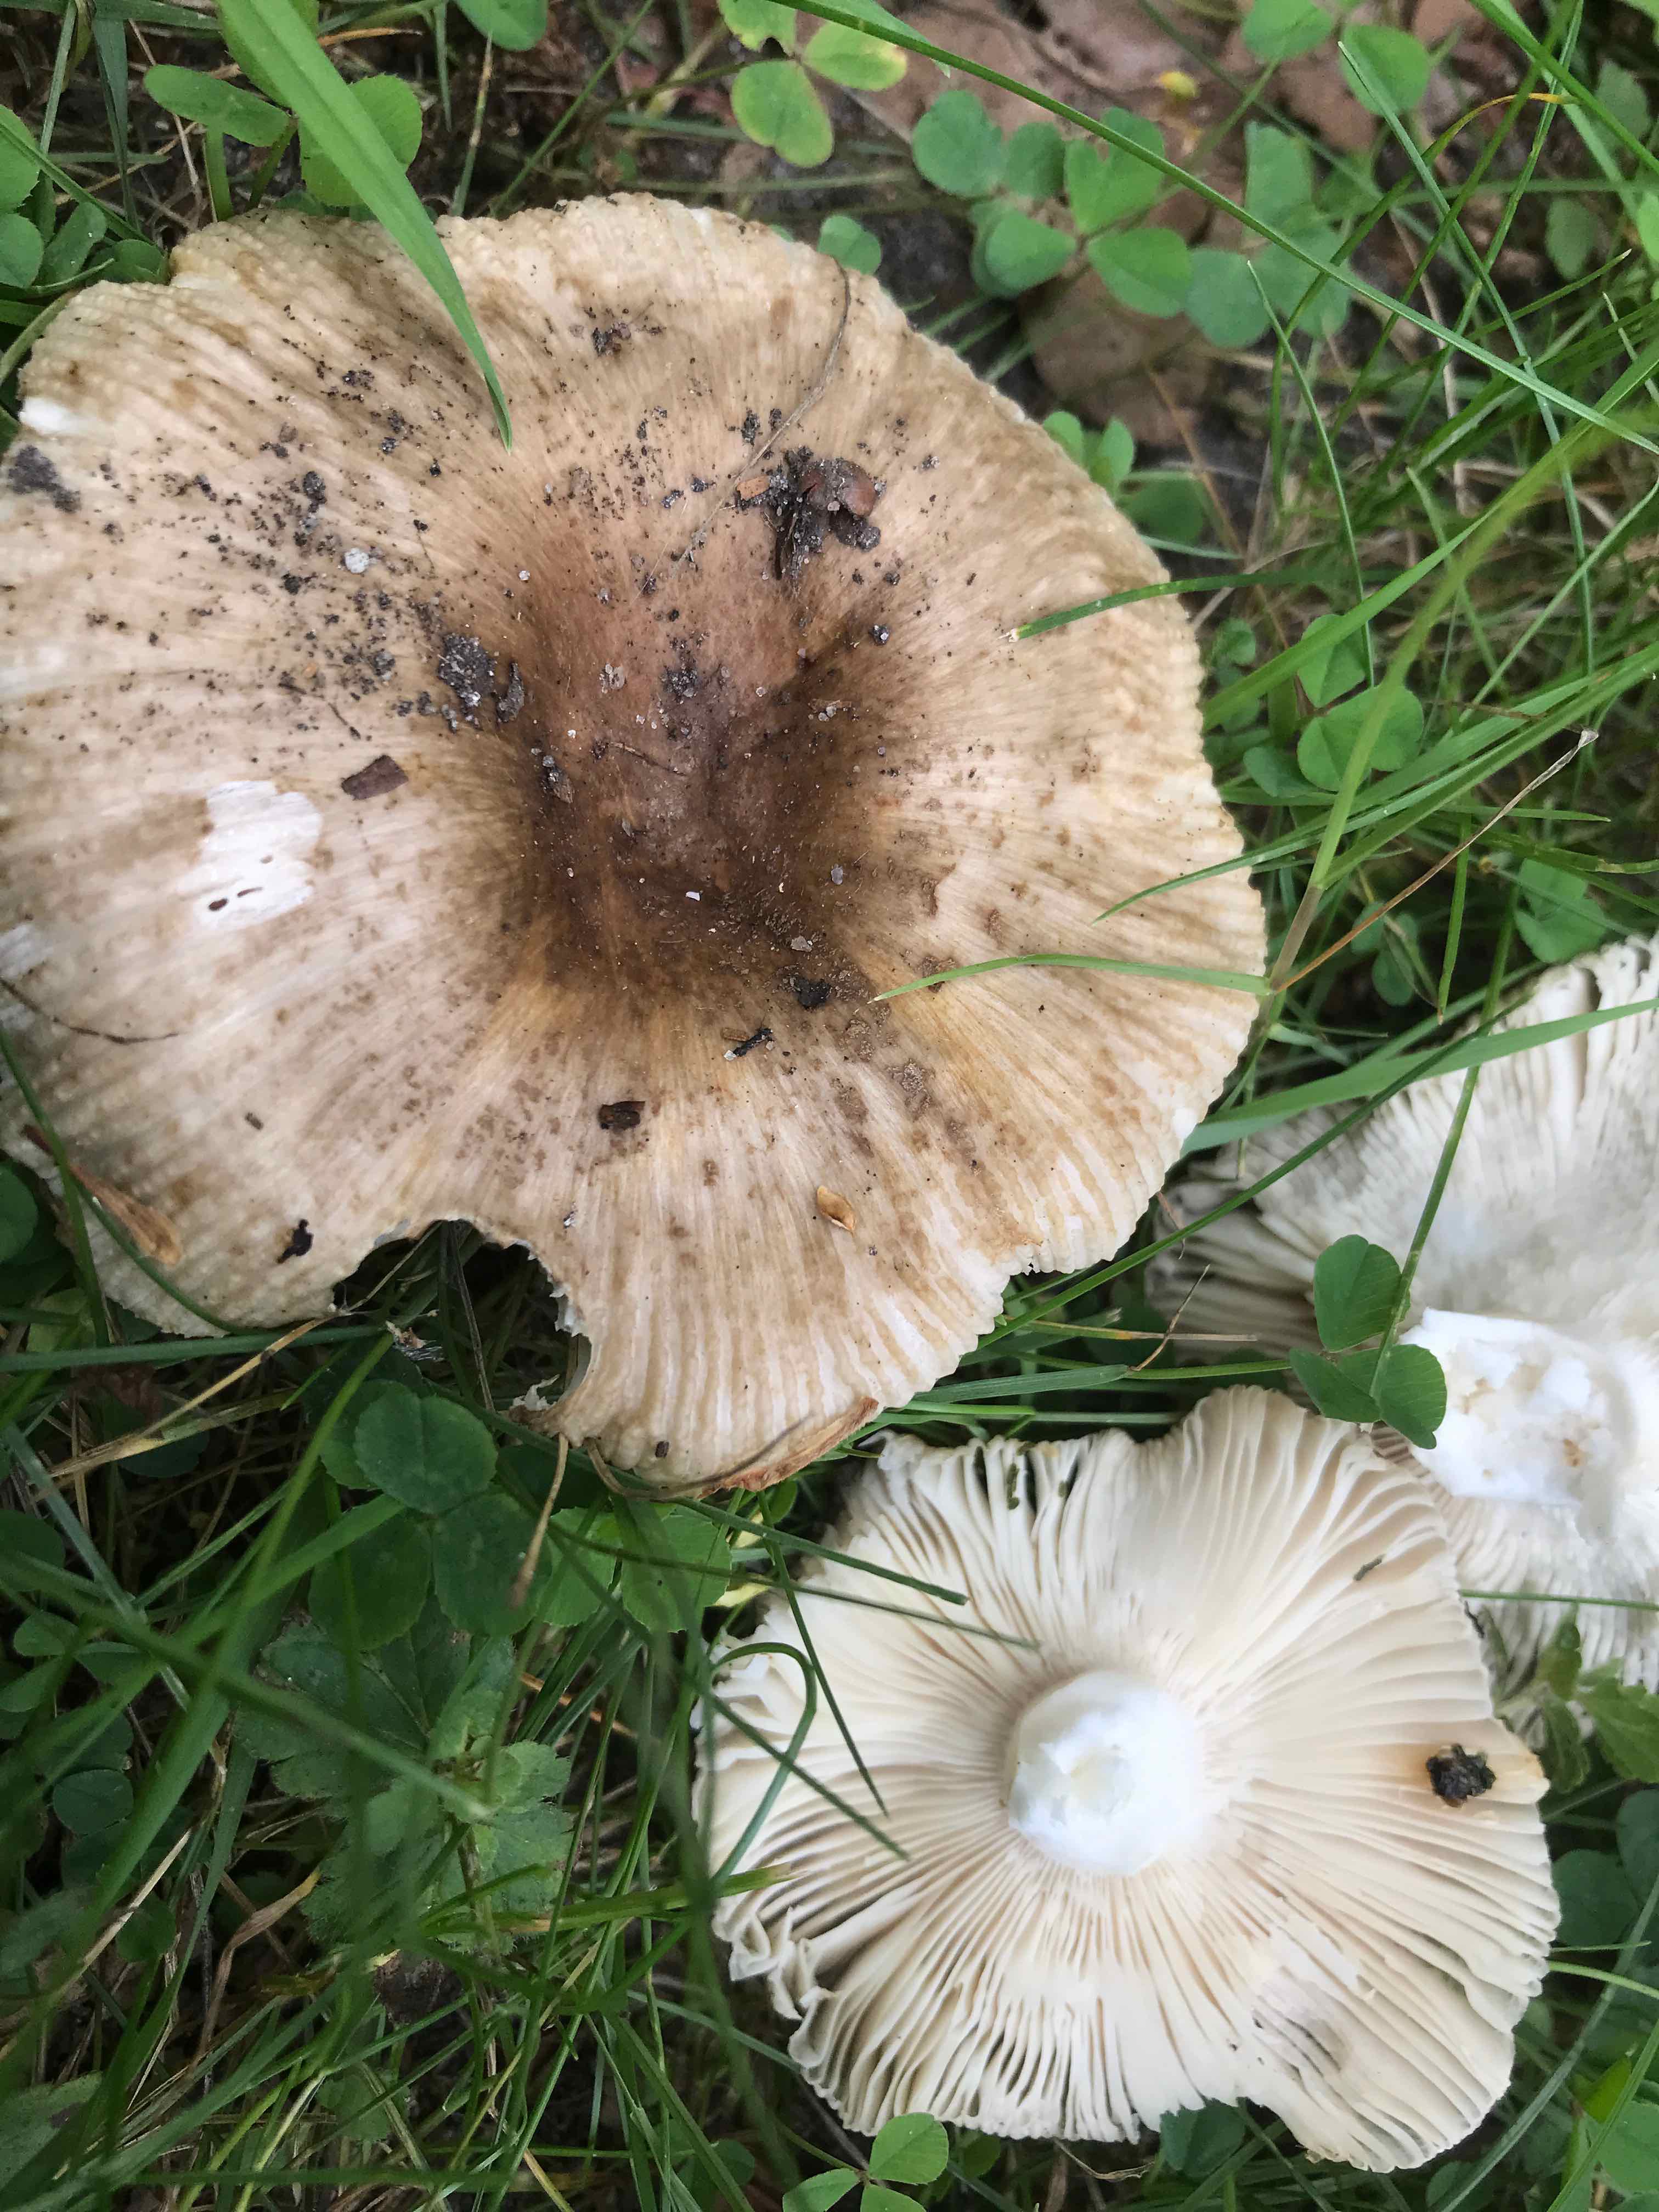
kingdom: Fungi
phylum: Basidiomycota
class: Agaricomycetes
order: Russulales
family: Russulaceae
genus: Russula
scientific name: Russula
